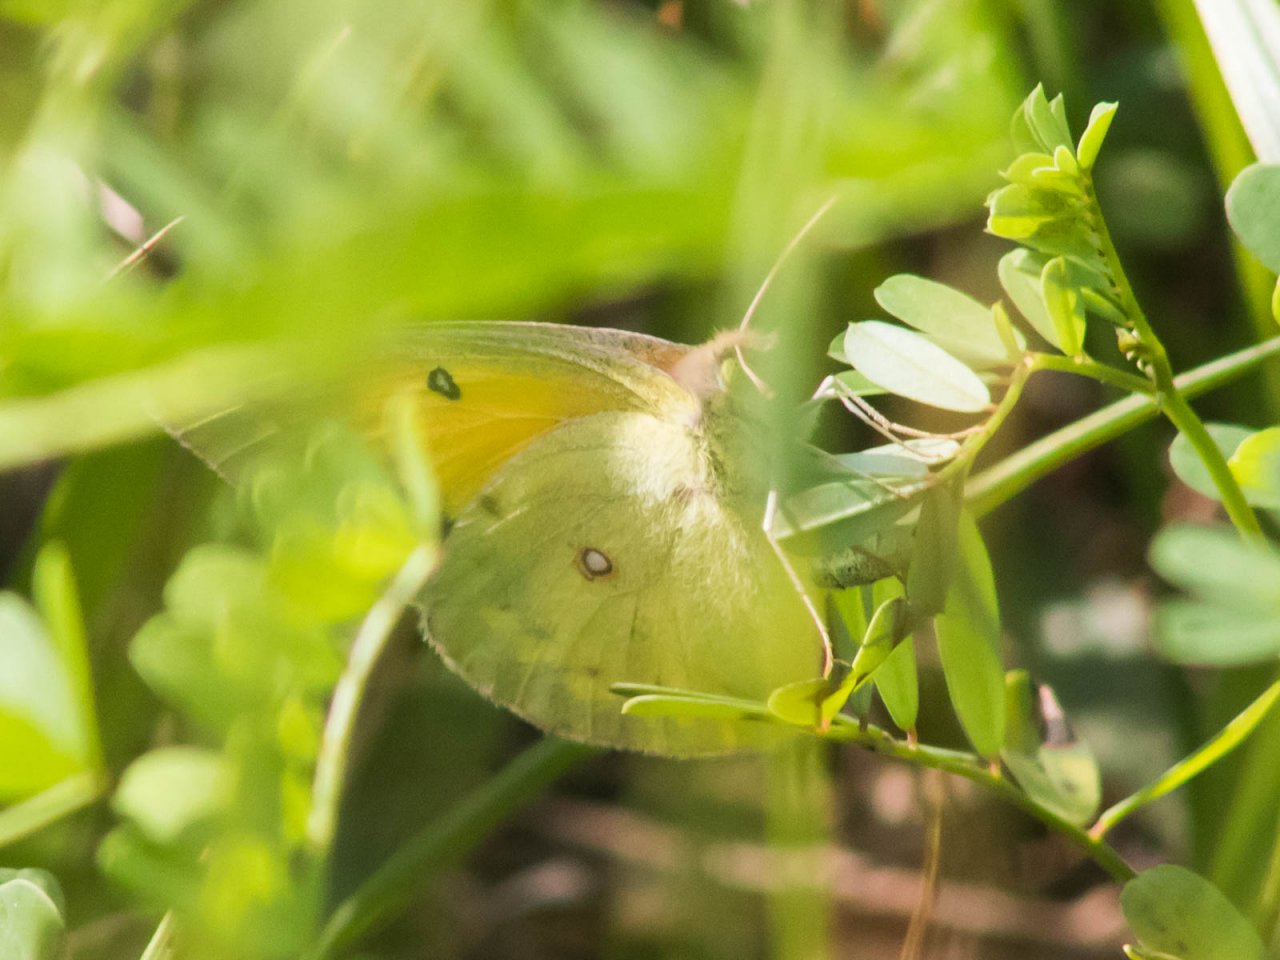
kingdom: Animalia
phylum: Arthropoda
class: Insecta
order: Lepidoptera
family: Pieridae
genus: Colias
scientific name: Colias eurytheme
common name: Orange Sulphur
